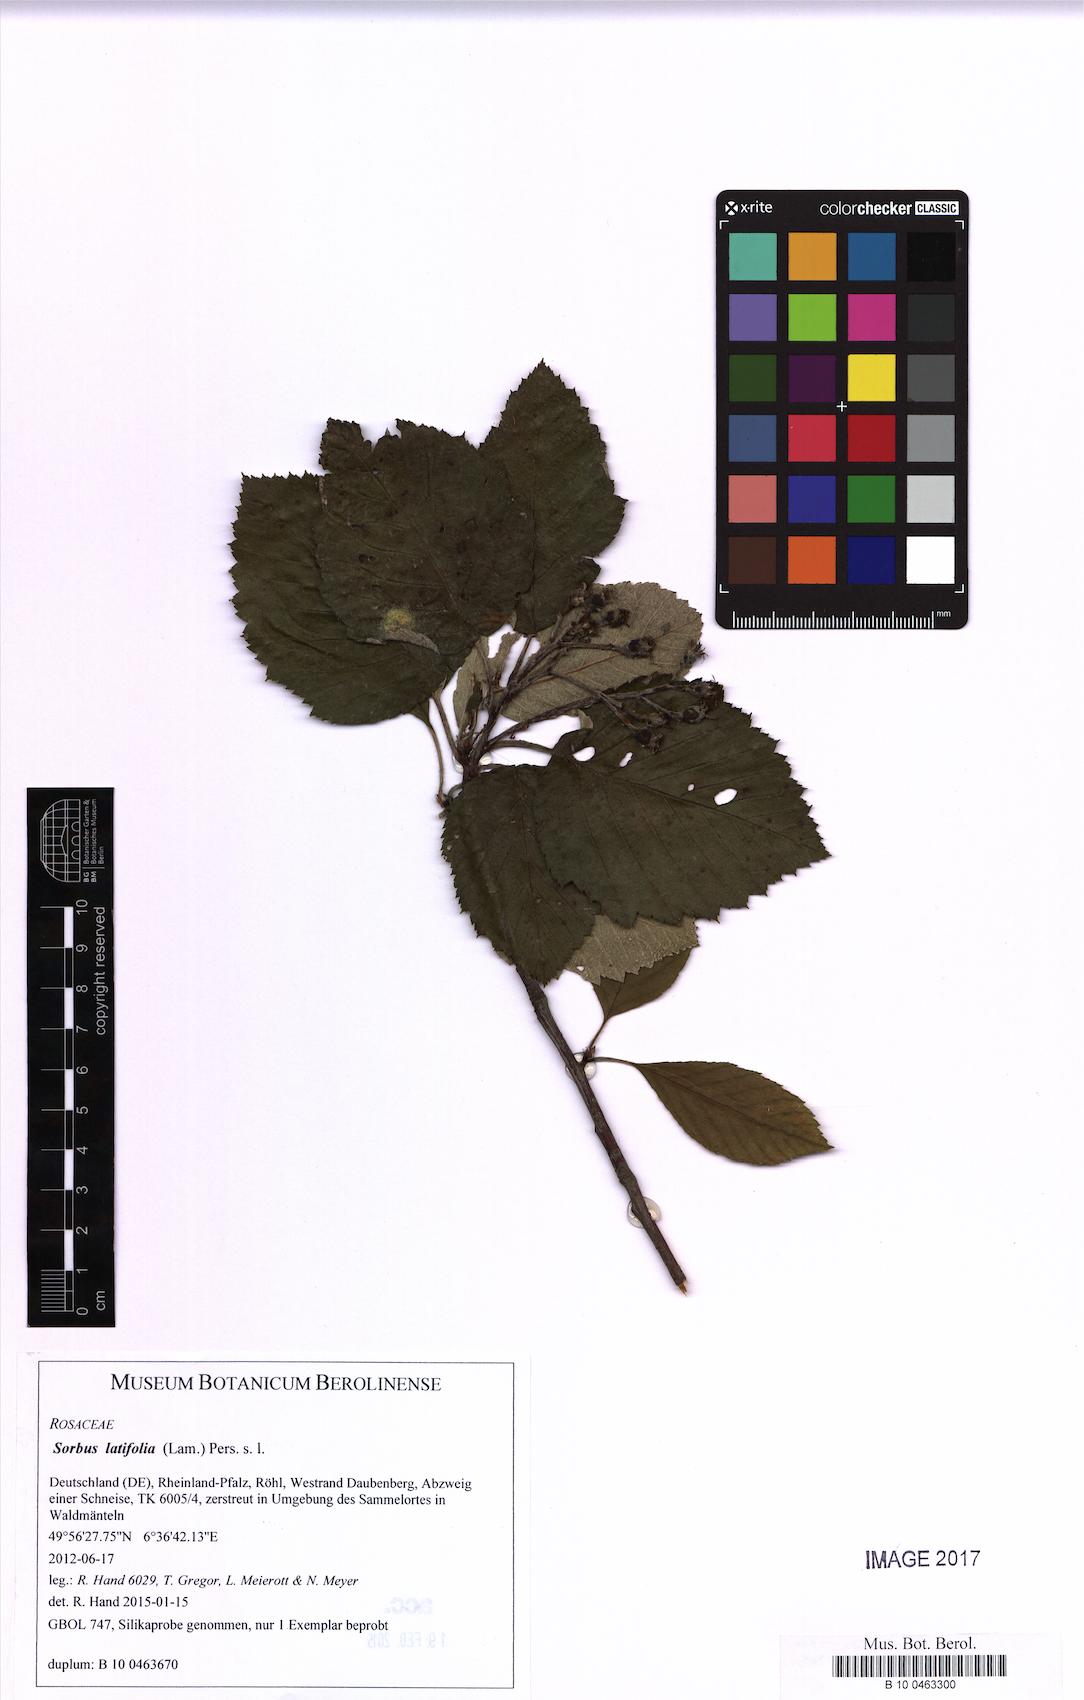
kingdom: Plantae
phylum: Tracheophyta
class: Magnoliopsida
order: Rosales
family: Rosaceae
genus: Karpatiosorbus
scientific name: Karpatiosorbus latifolia
